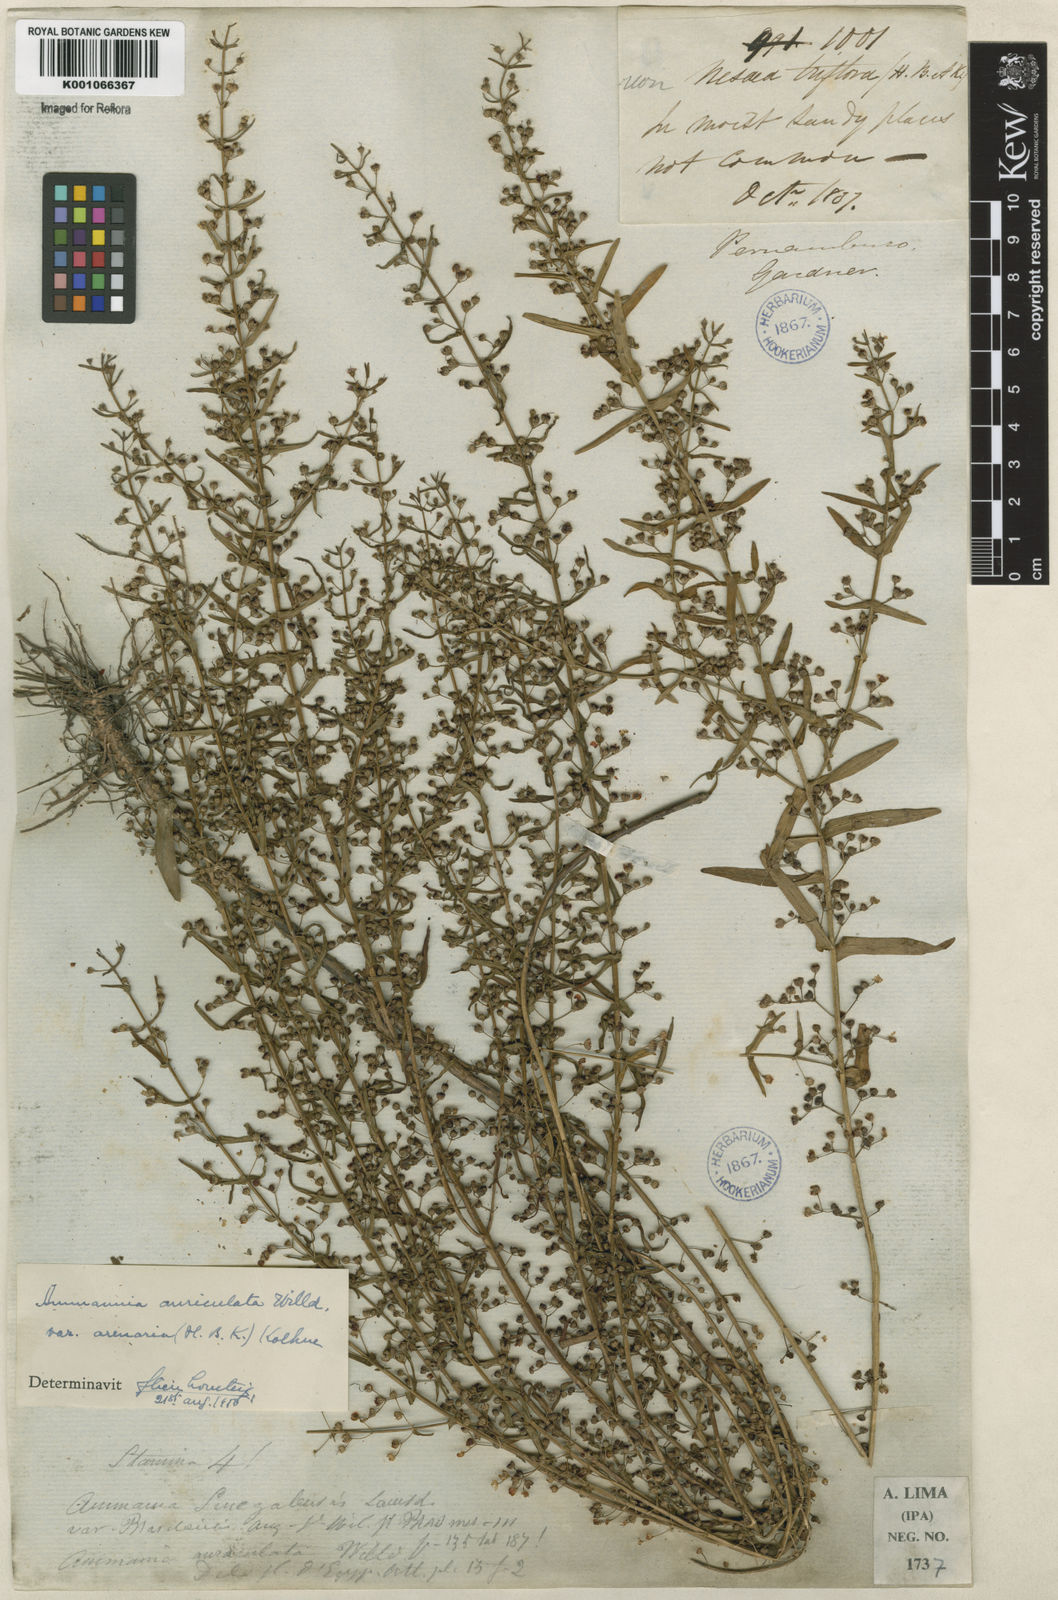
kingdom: Plantae
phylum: Tracheophyta
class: Magnoliopsida
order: Myrtales
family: Lythraceae
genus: Ammannia
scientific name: Ammannia auriculata
